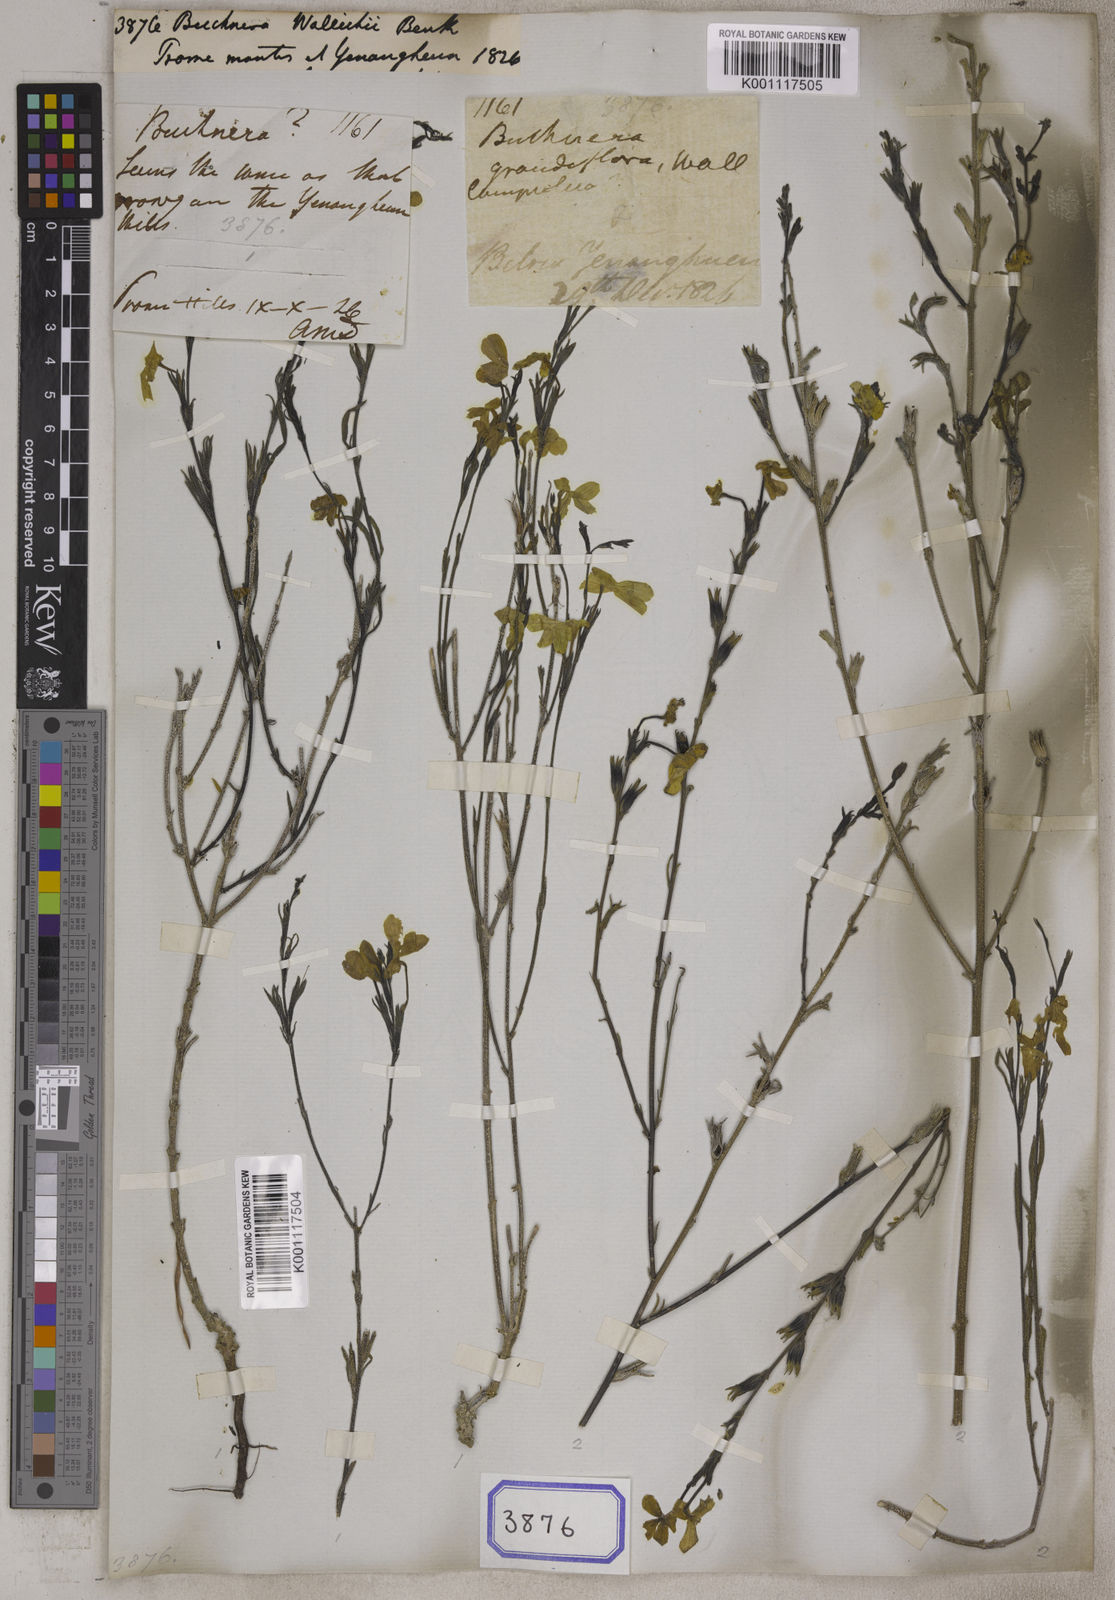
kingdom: Plantae
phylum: Tracheophyta
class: Magnoliopsida
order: Lamiales
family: Orobanchaceae
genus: Striga
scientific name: Striga masuria
